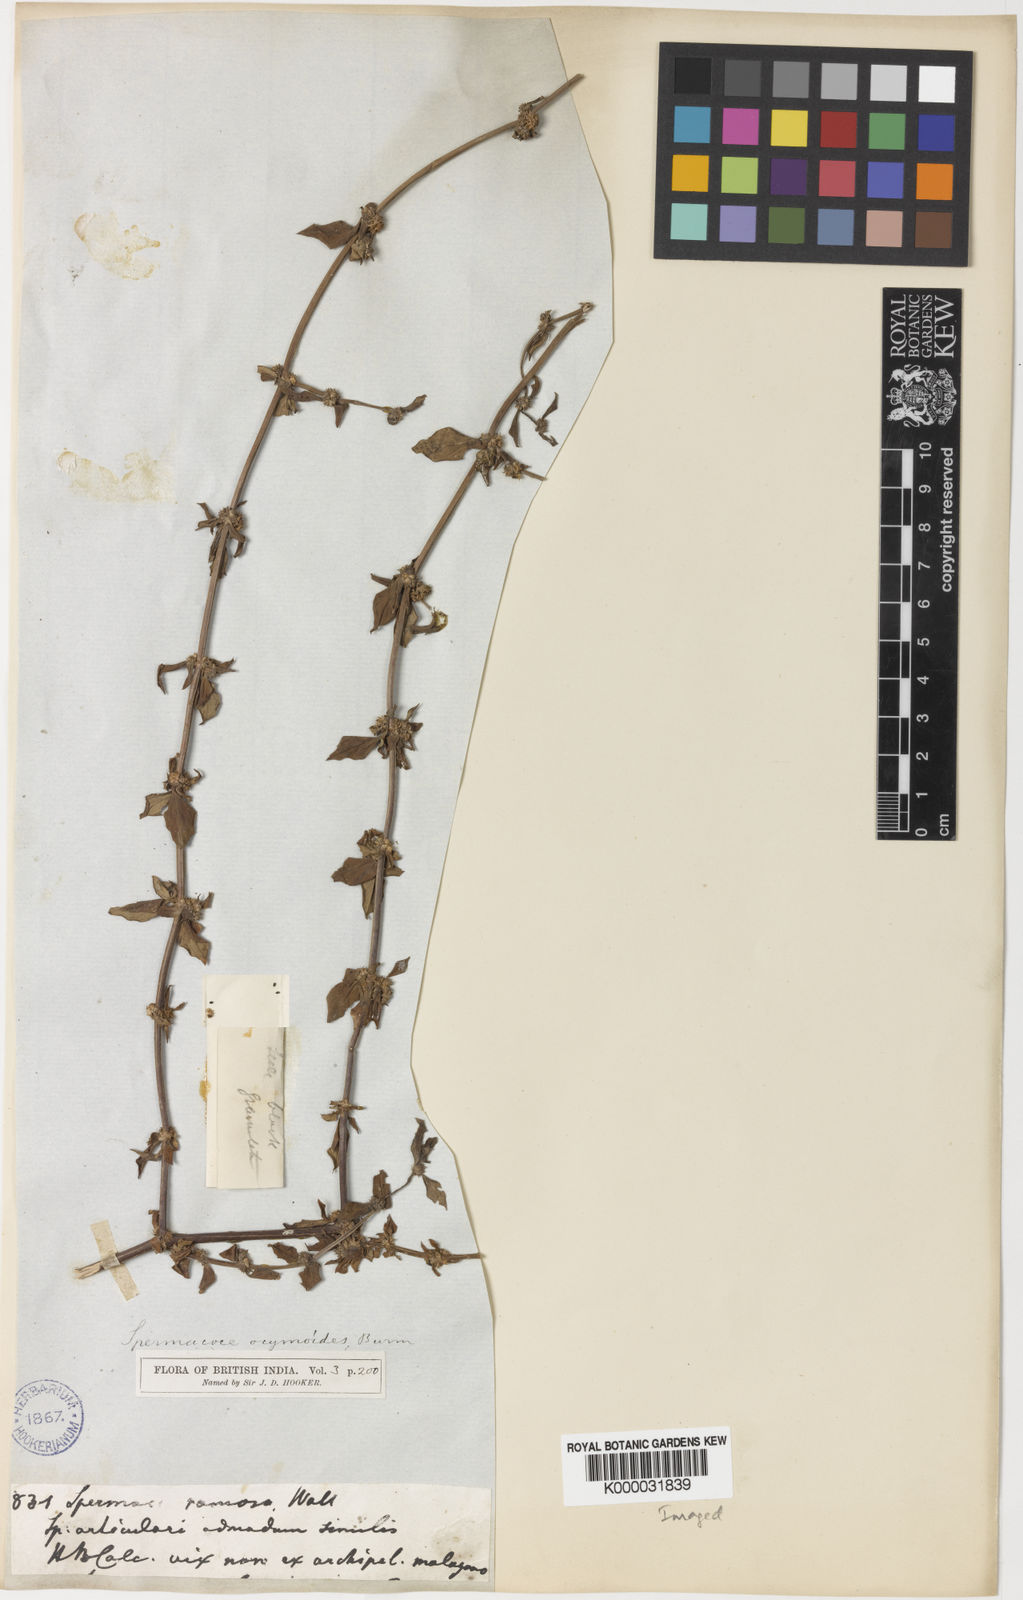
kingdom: Plantae
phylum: Tracheophyta
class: Magnoliopsida
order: Gentianales
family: Rubiaceae
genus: Spermacoce
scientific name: Spermacoce
